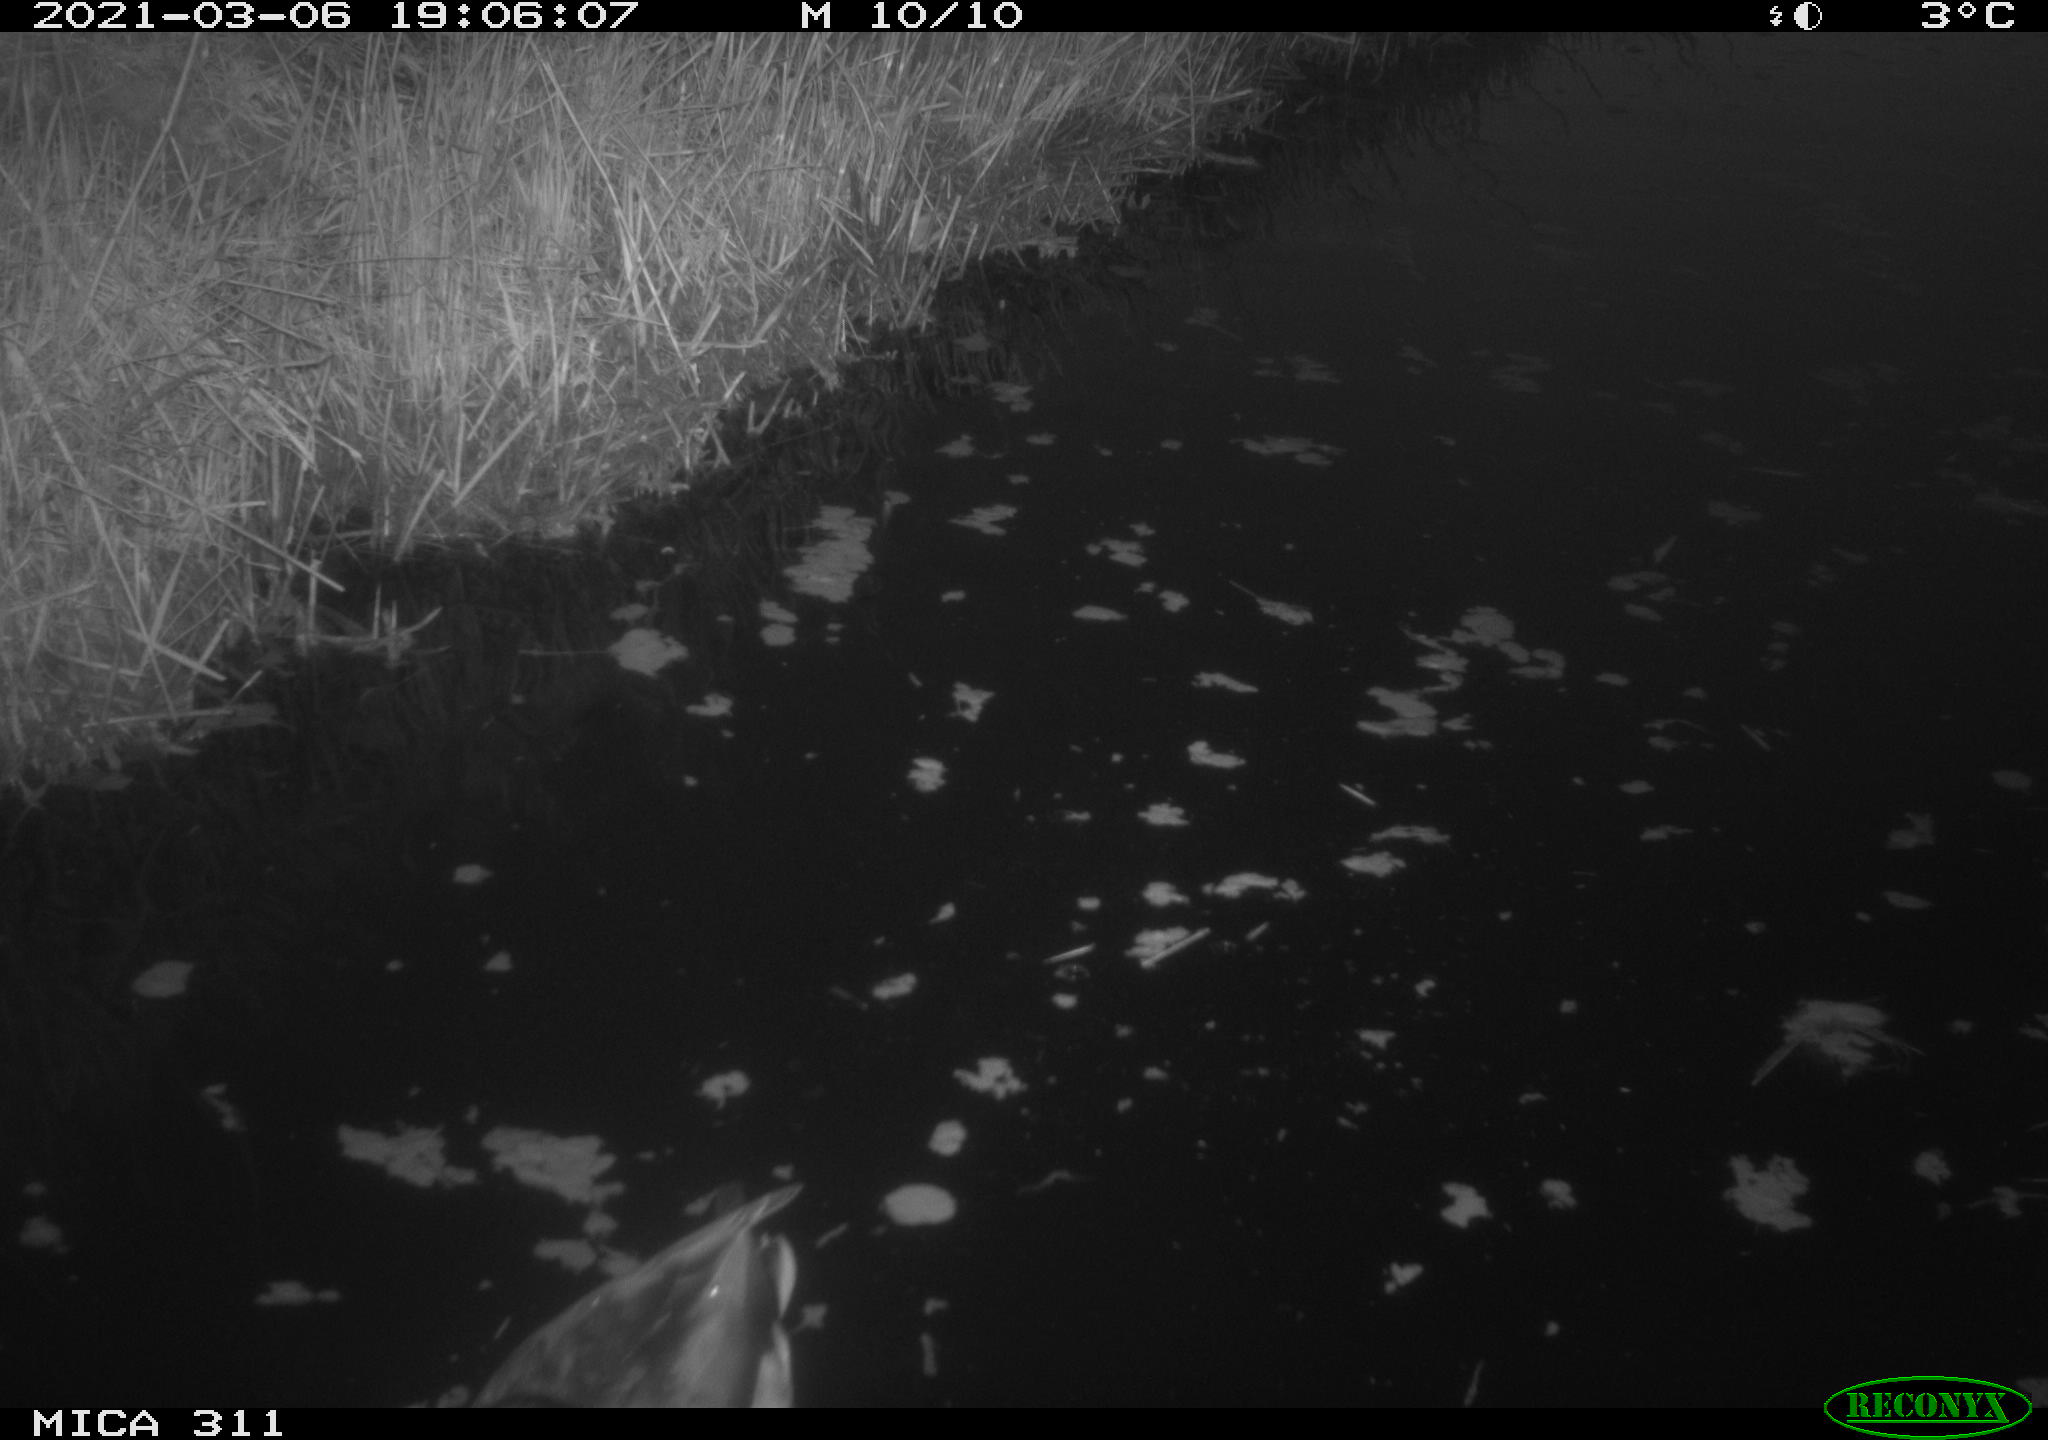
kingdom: Animalia
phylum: Chordata
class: Aves
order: Anseriformes
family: Anatidae
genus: Anas
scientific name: Anas
